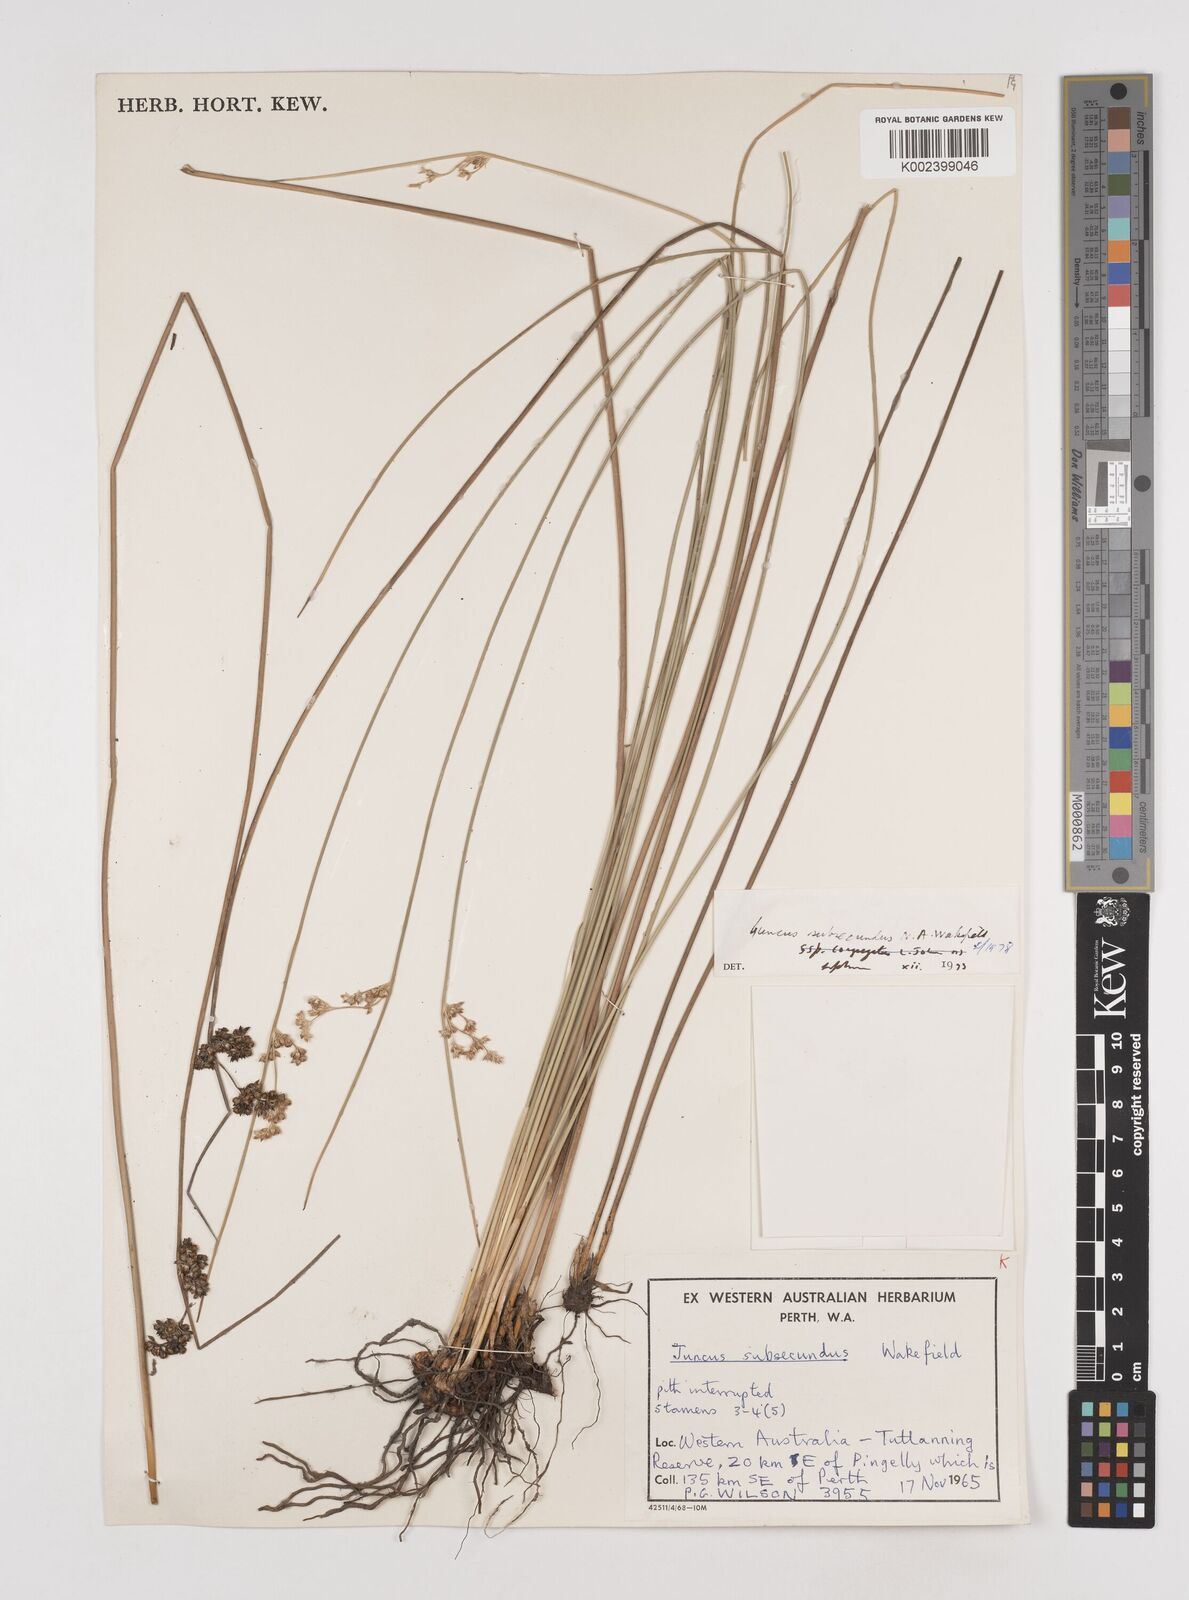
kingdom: Plantae
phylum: Tracheophyta
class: Liliopsida
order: Poales
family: Juncaceae
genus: Juncus
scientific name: Juncus subsecundus
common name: Fingered rush
